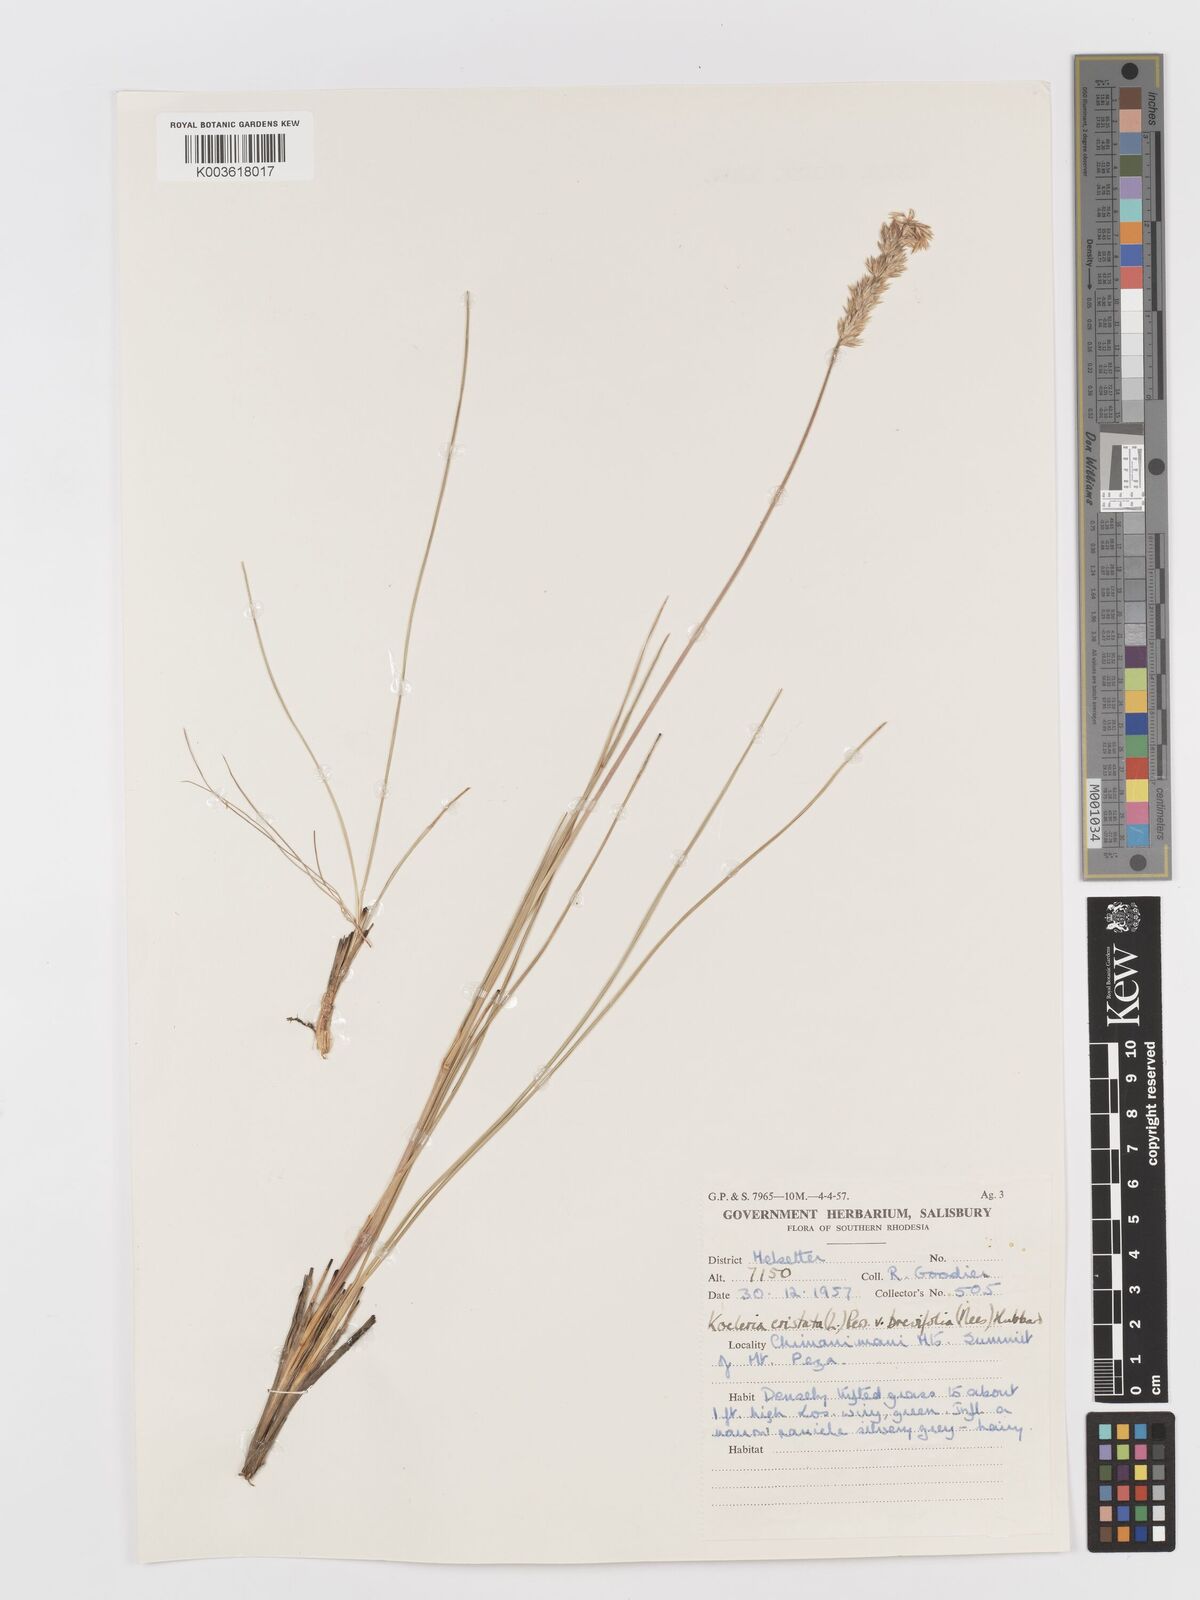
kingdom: Plantae
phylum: Tracheophyta
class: Liliopsida
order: Poales
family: Poaceae
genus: Koeleria
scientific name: Koeleria capensis
